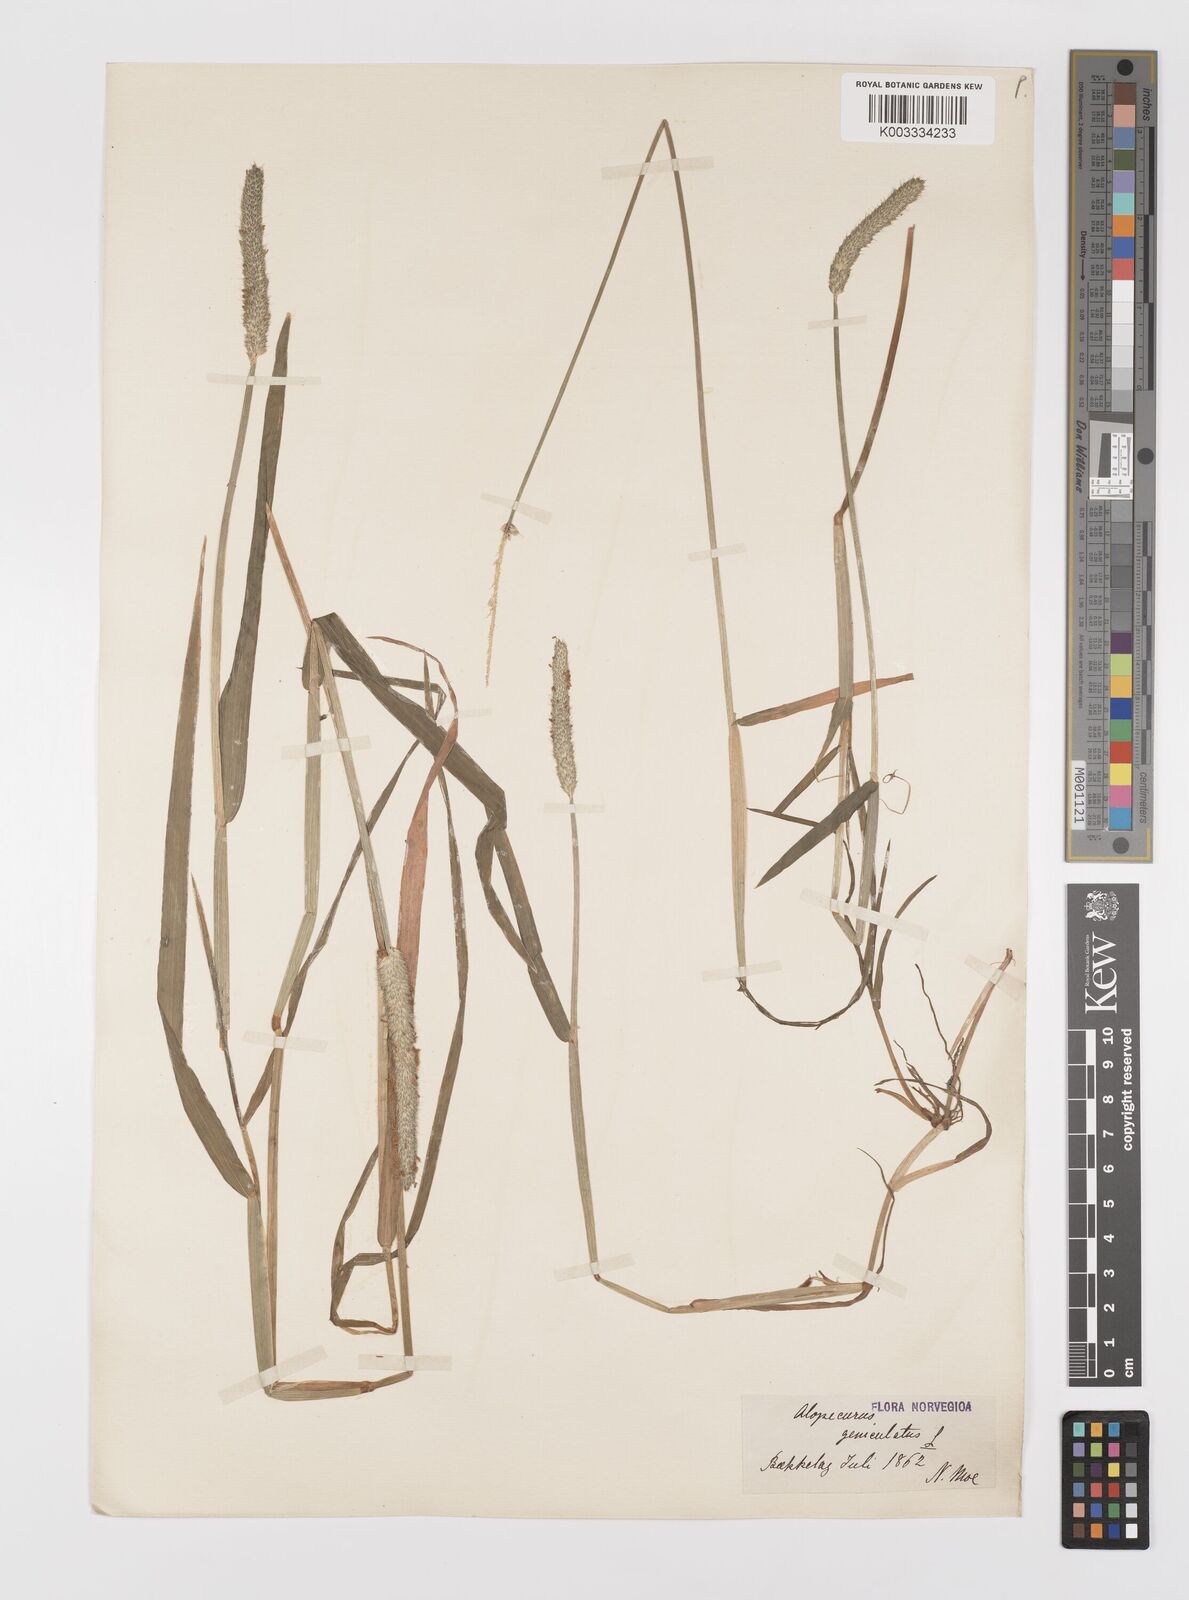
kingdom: Plantae
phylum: Tracheophyta
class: Liliopsida
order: Poales
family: Poaceae
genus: Alopecurus
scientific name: Alopecurus geniculatus
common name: Water foxtail
